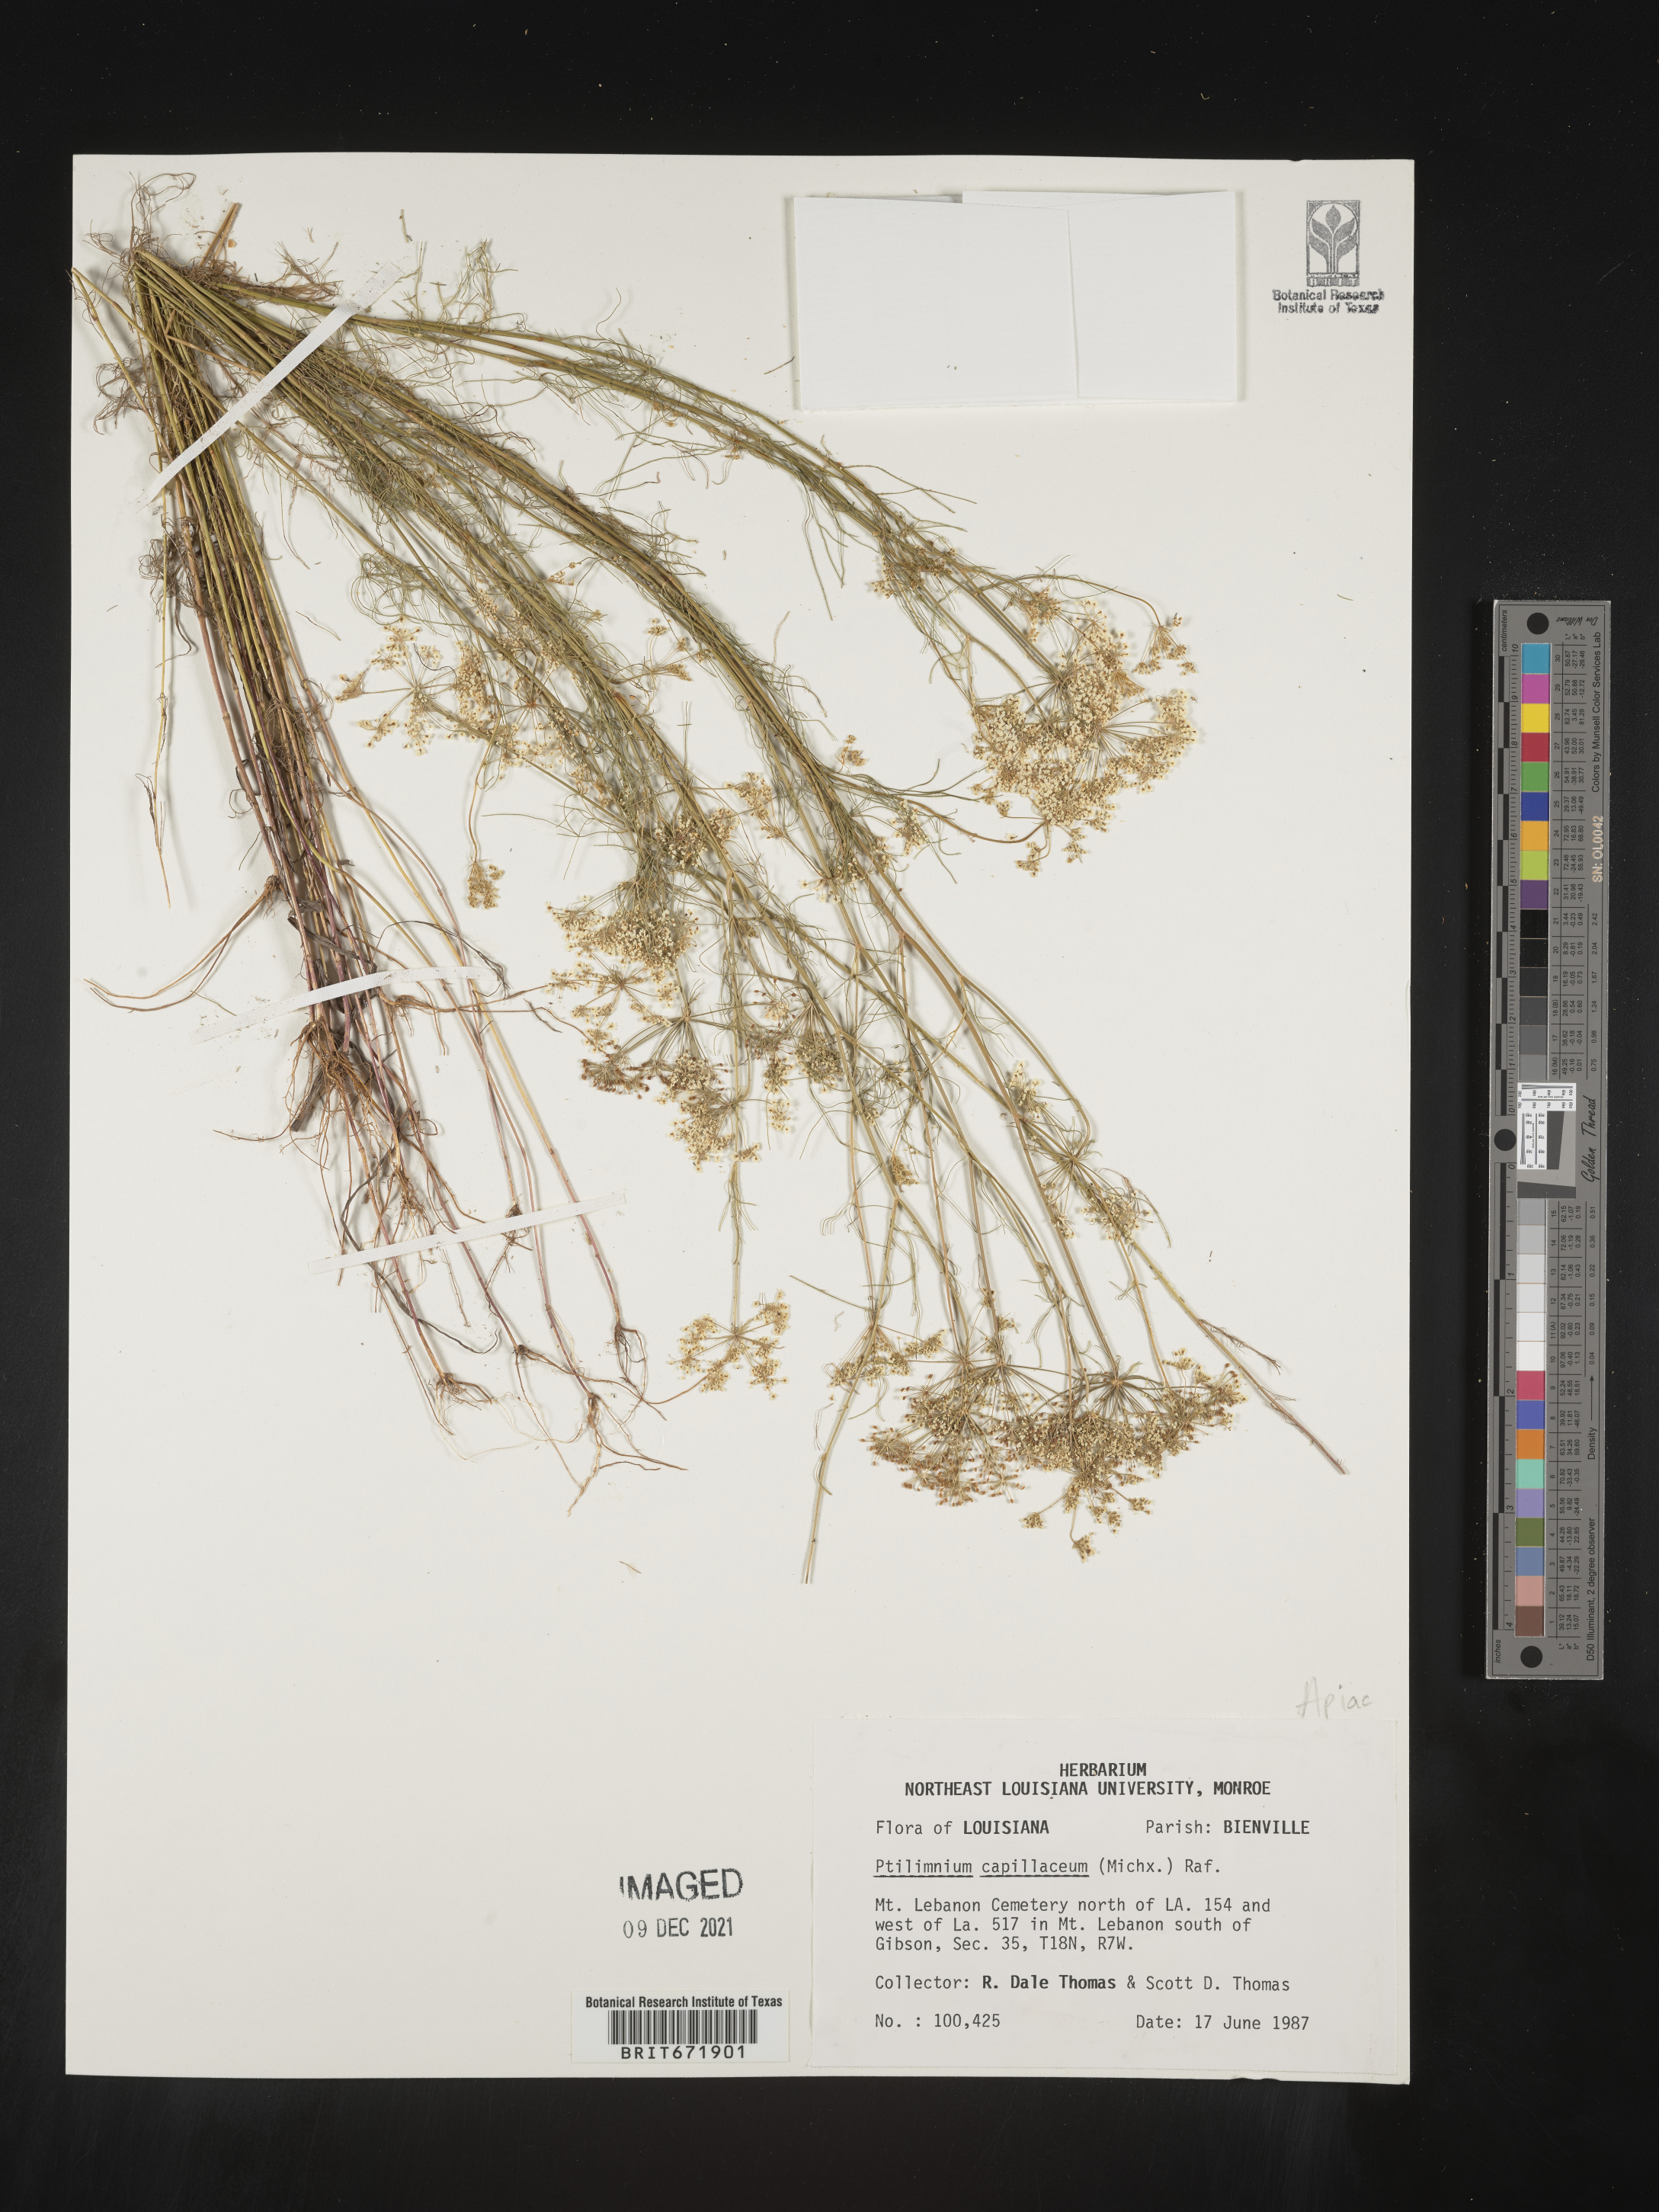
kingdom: Plantae
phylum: Tracheophyta
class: Magnoliopsida
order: Apiales
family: Apiaceae
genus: Ptilimnium
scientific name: Ptilimnium capillaceum
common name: Herbwilliam
